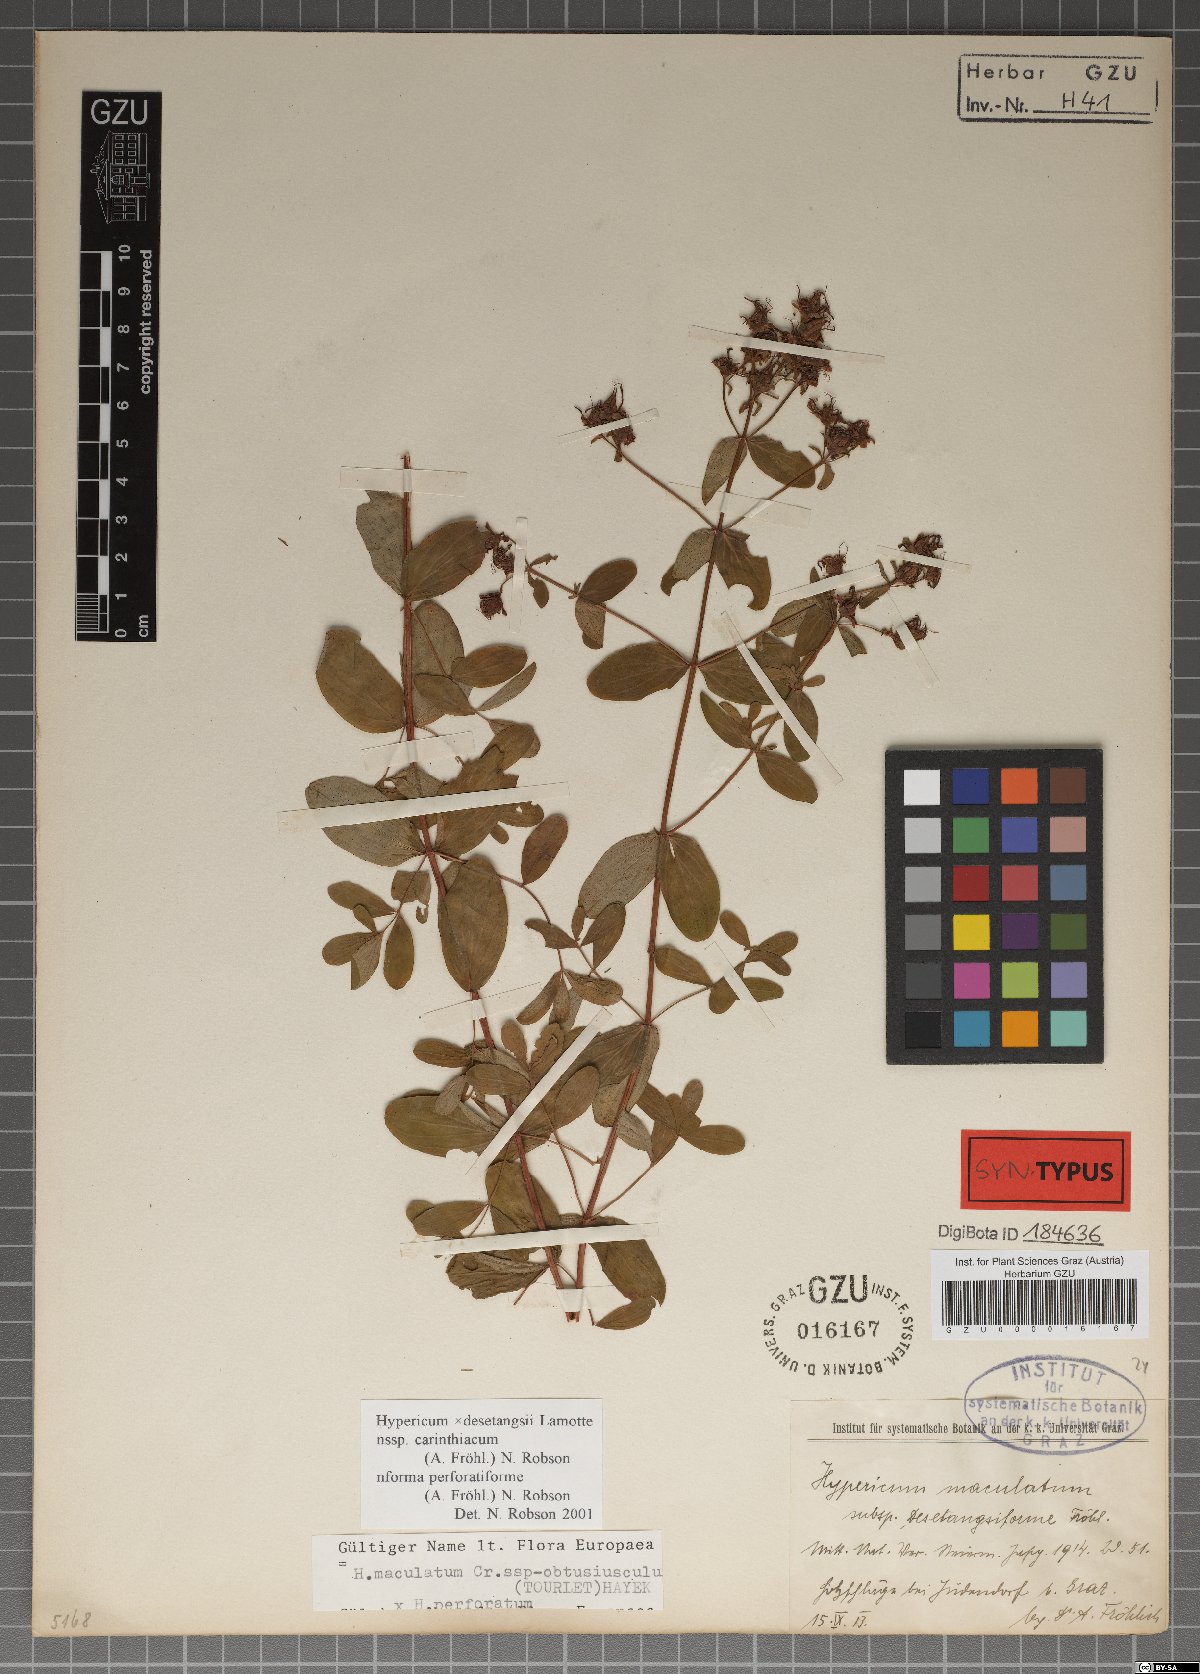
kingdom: Plantae
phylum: Tracheophyta
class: Magnoliopsida
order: Malpighiales
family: Hypericaceae
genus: Hypericum
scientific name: Hypericum carinthiacum
